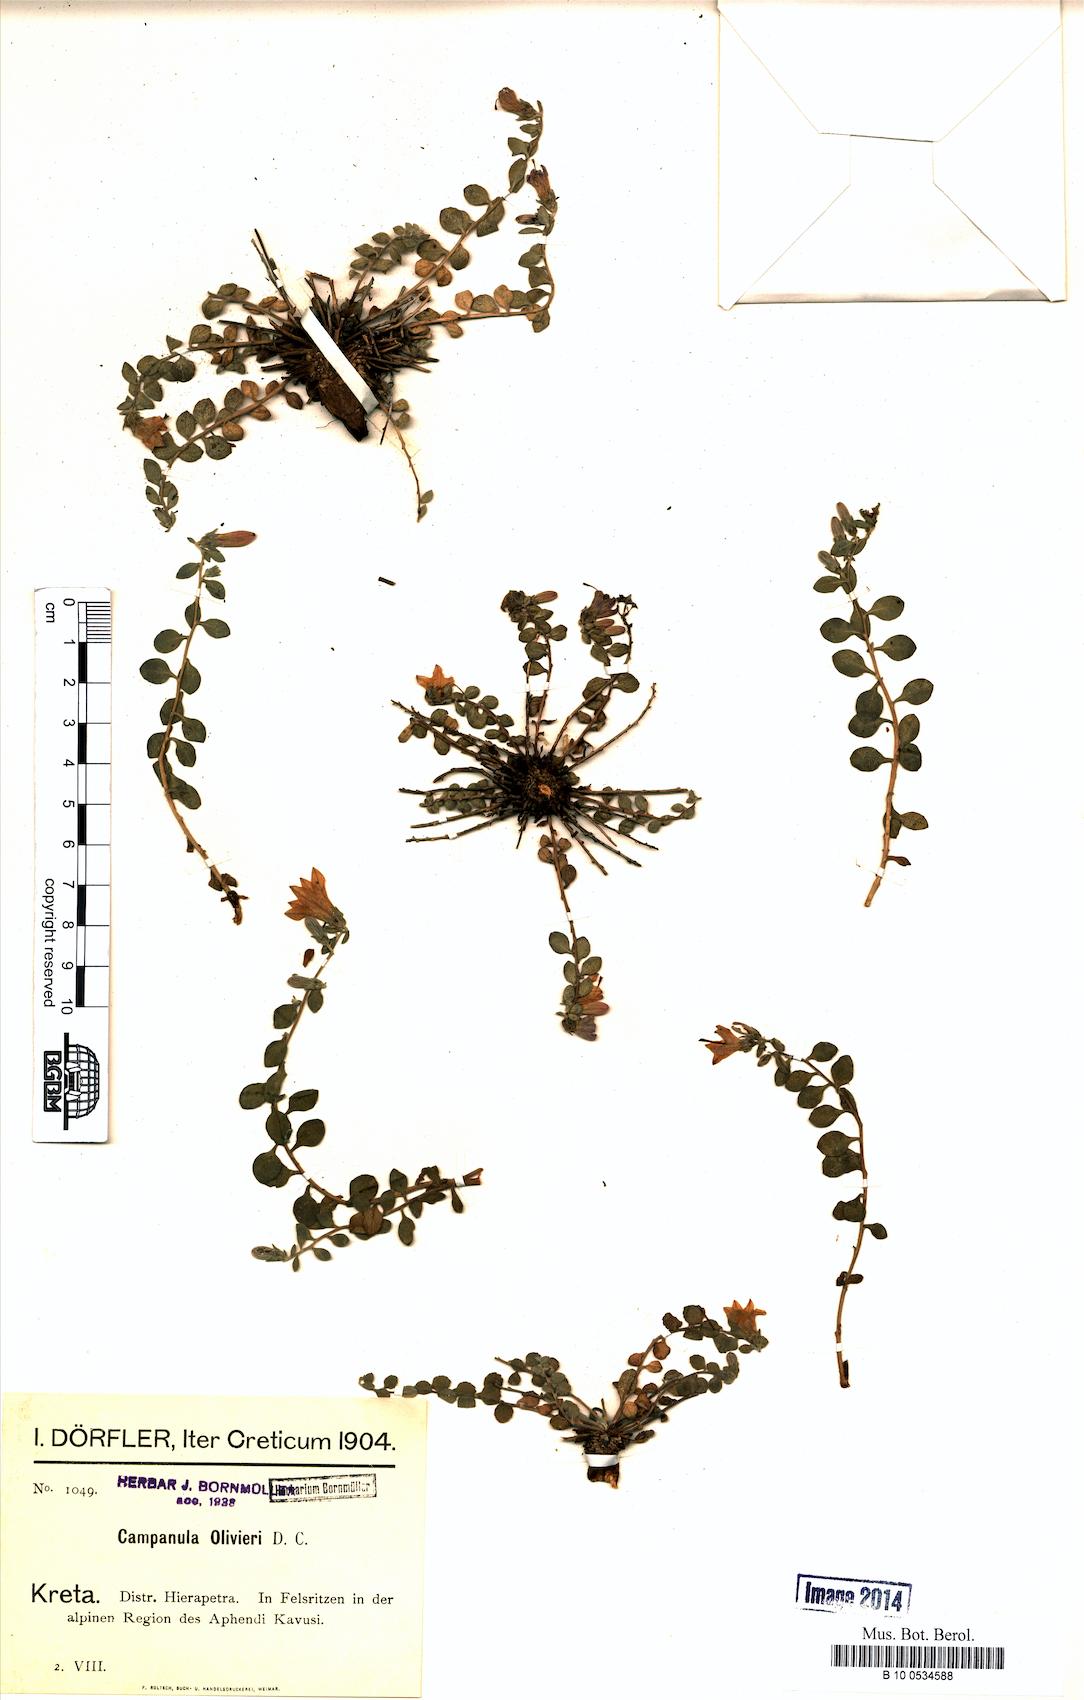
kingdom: Plantae
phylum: Tracheophyta
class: Magnoliopsida
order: Asterales
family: Campanulaceae
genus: Campanula
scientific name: Campanula hierapetrae
